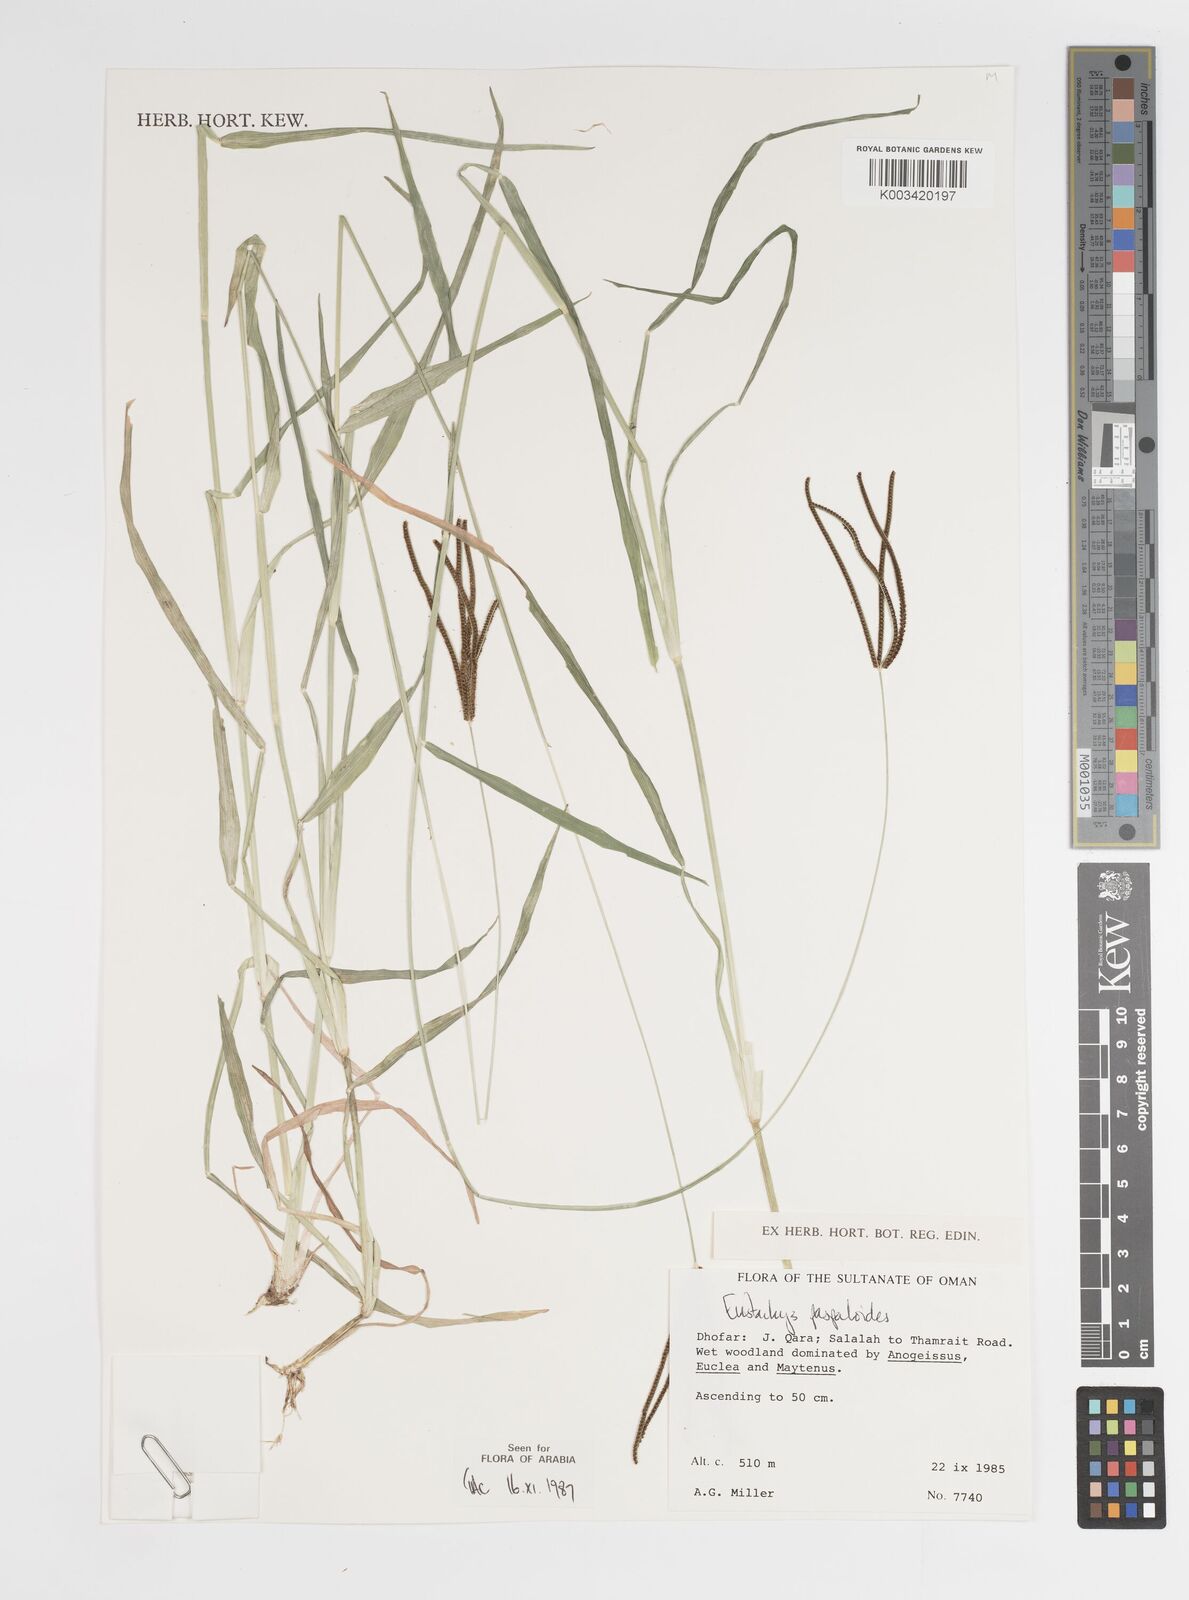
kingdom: Plantae
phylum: Tracheophyta
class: Liliopsida
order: Poales
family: Poaceae
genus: Eustachys
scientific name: Eustachys paspaloides
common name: Caribbean fingergrass
